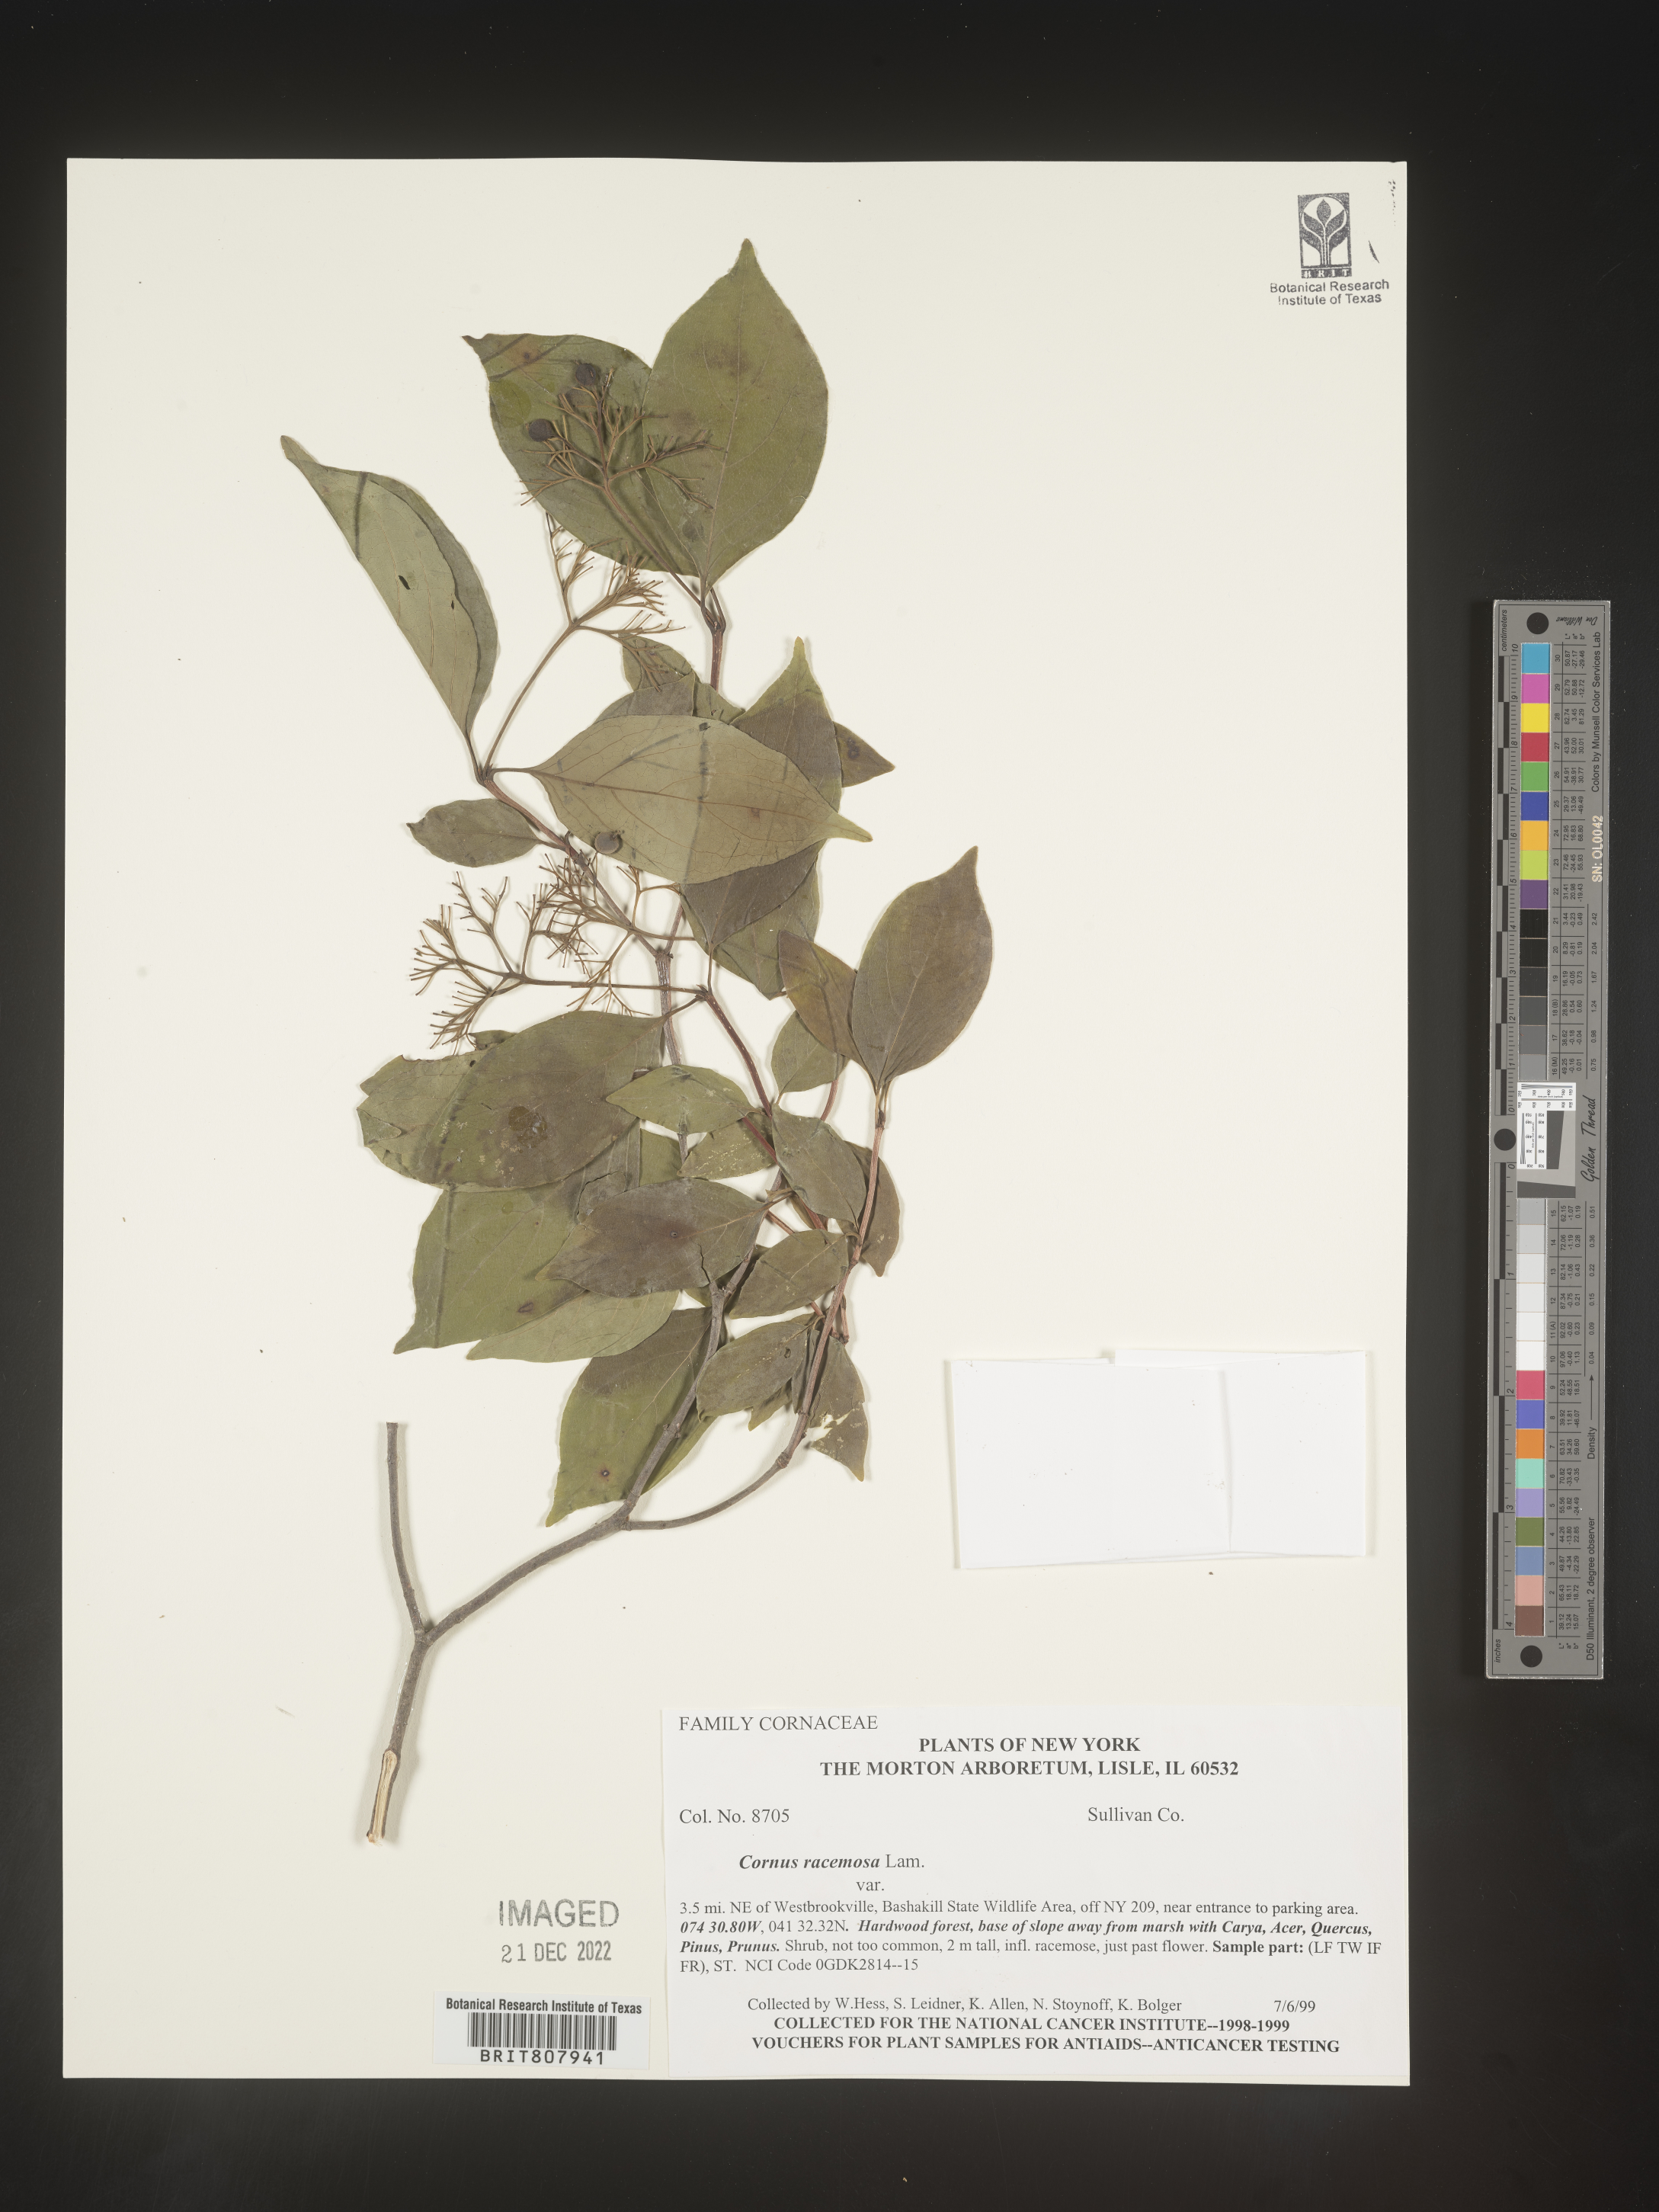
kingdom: Plantae
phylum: Tracheophyta
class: Magnoliopsida
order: Cornales
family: Cornaceae
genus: Cornus
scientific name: Cornus racemosa
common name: Panicled dogwood
